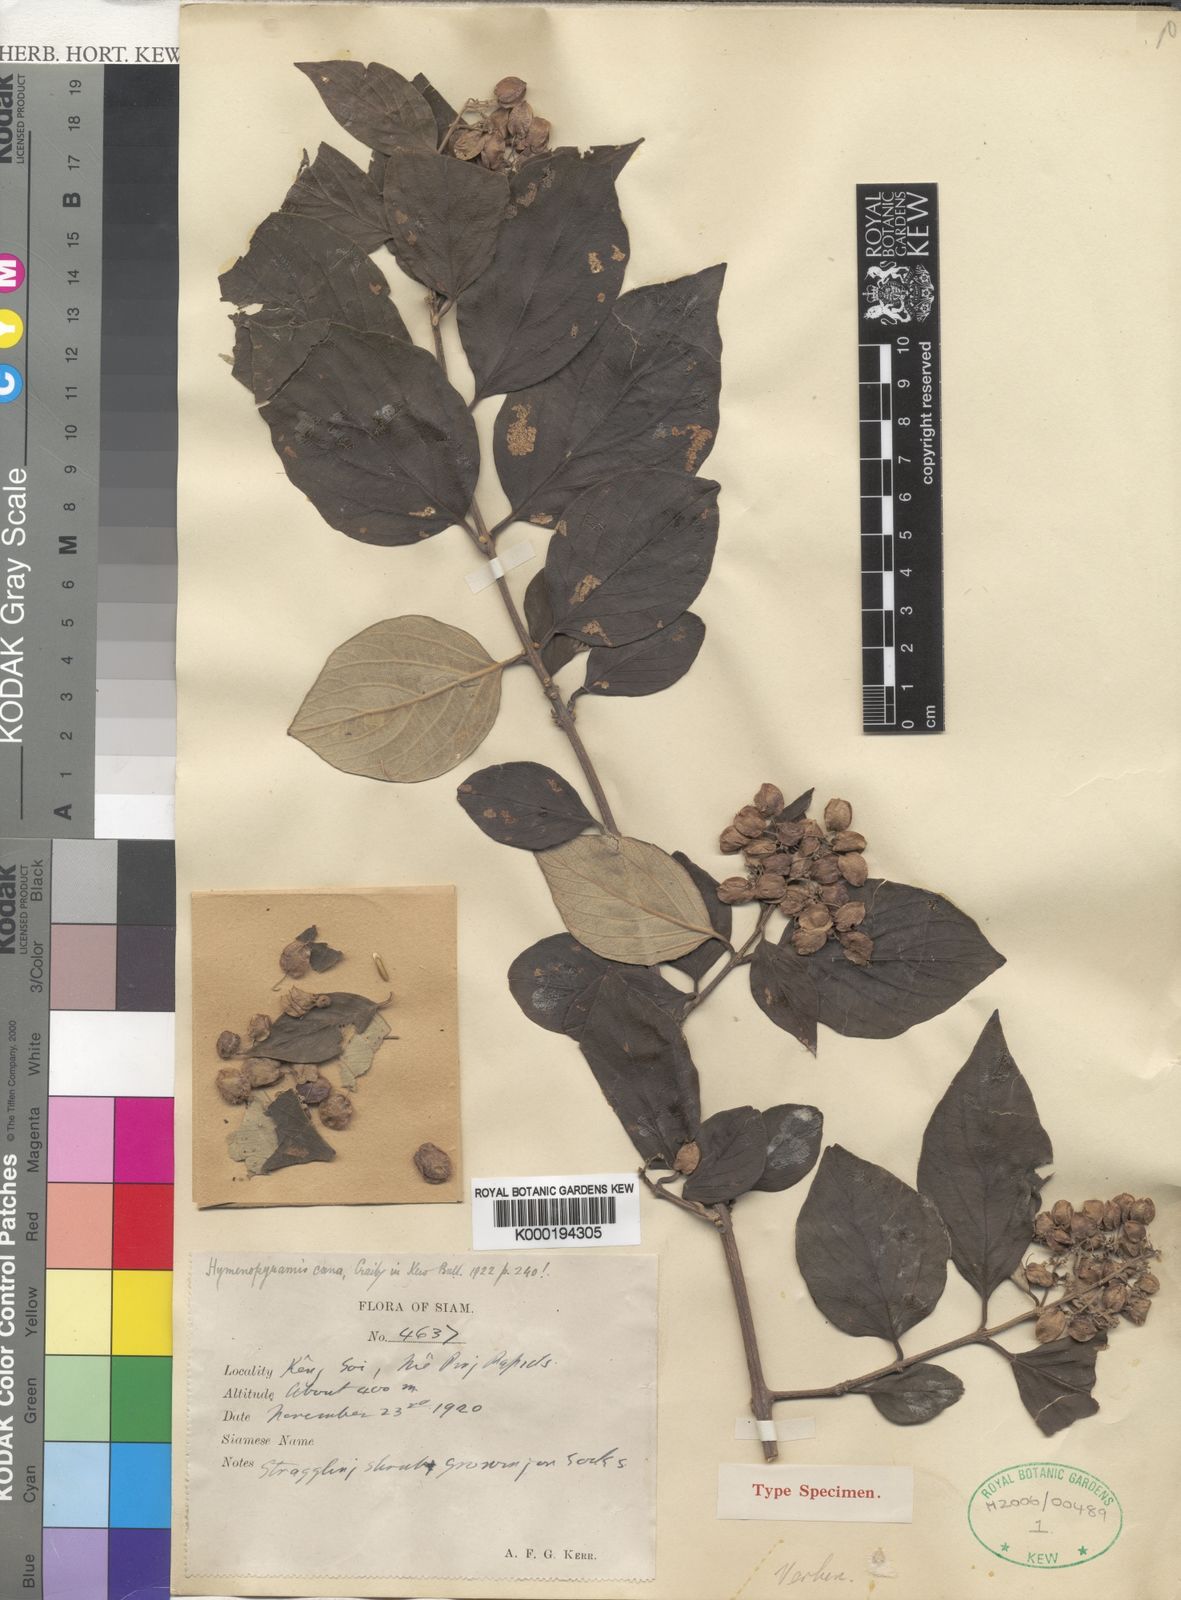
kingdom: Plantae
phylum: Tracheophyta
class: Magnoliopsida
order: Lamiales
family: Lamiaceae
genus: Hymenopyramis
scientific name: Hymenopyramis cana
